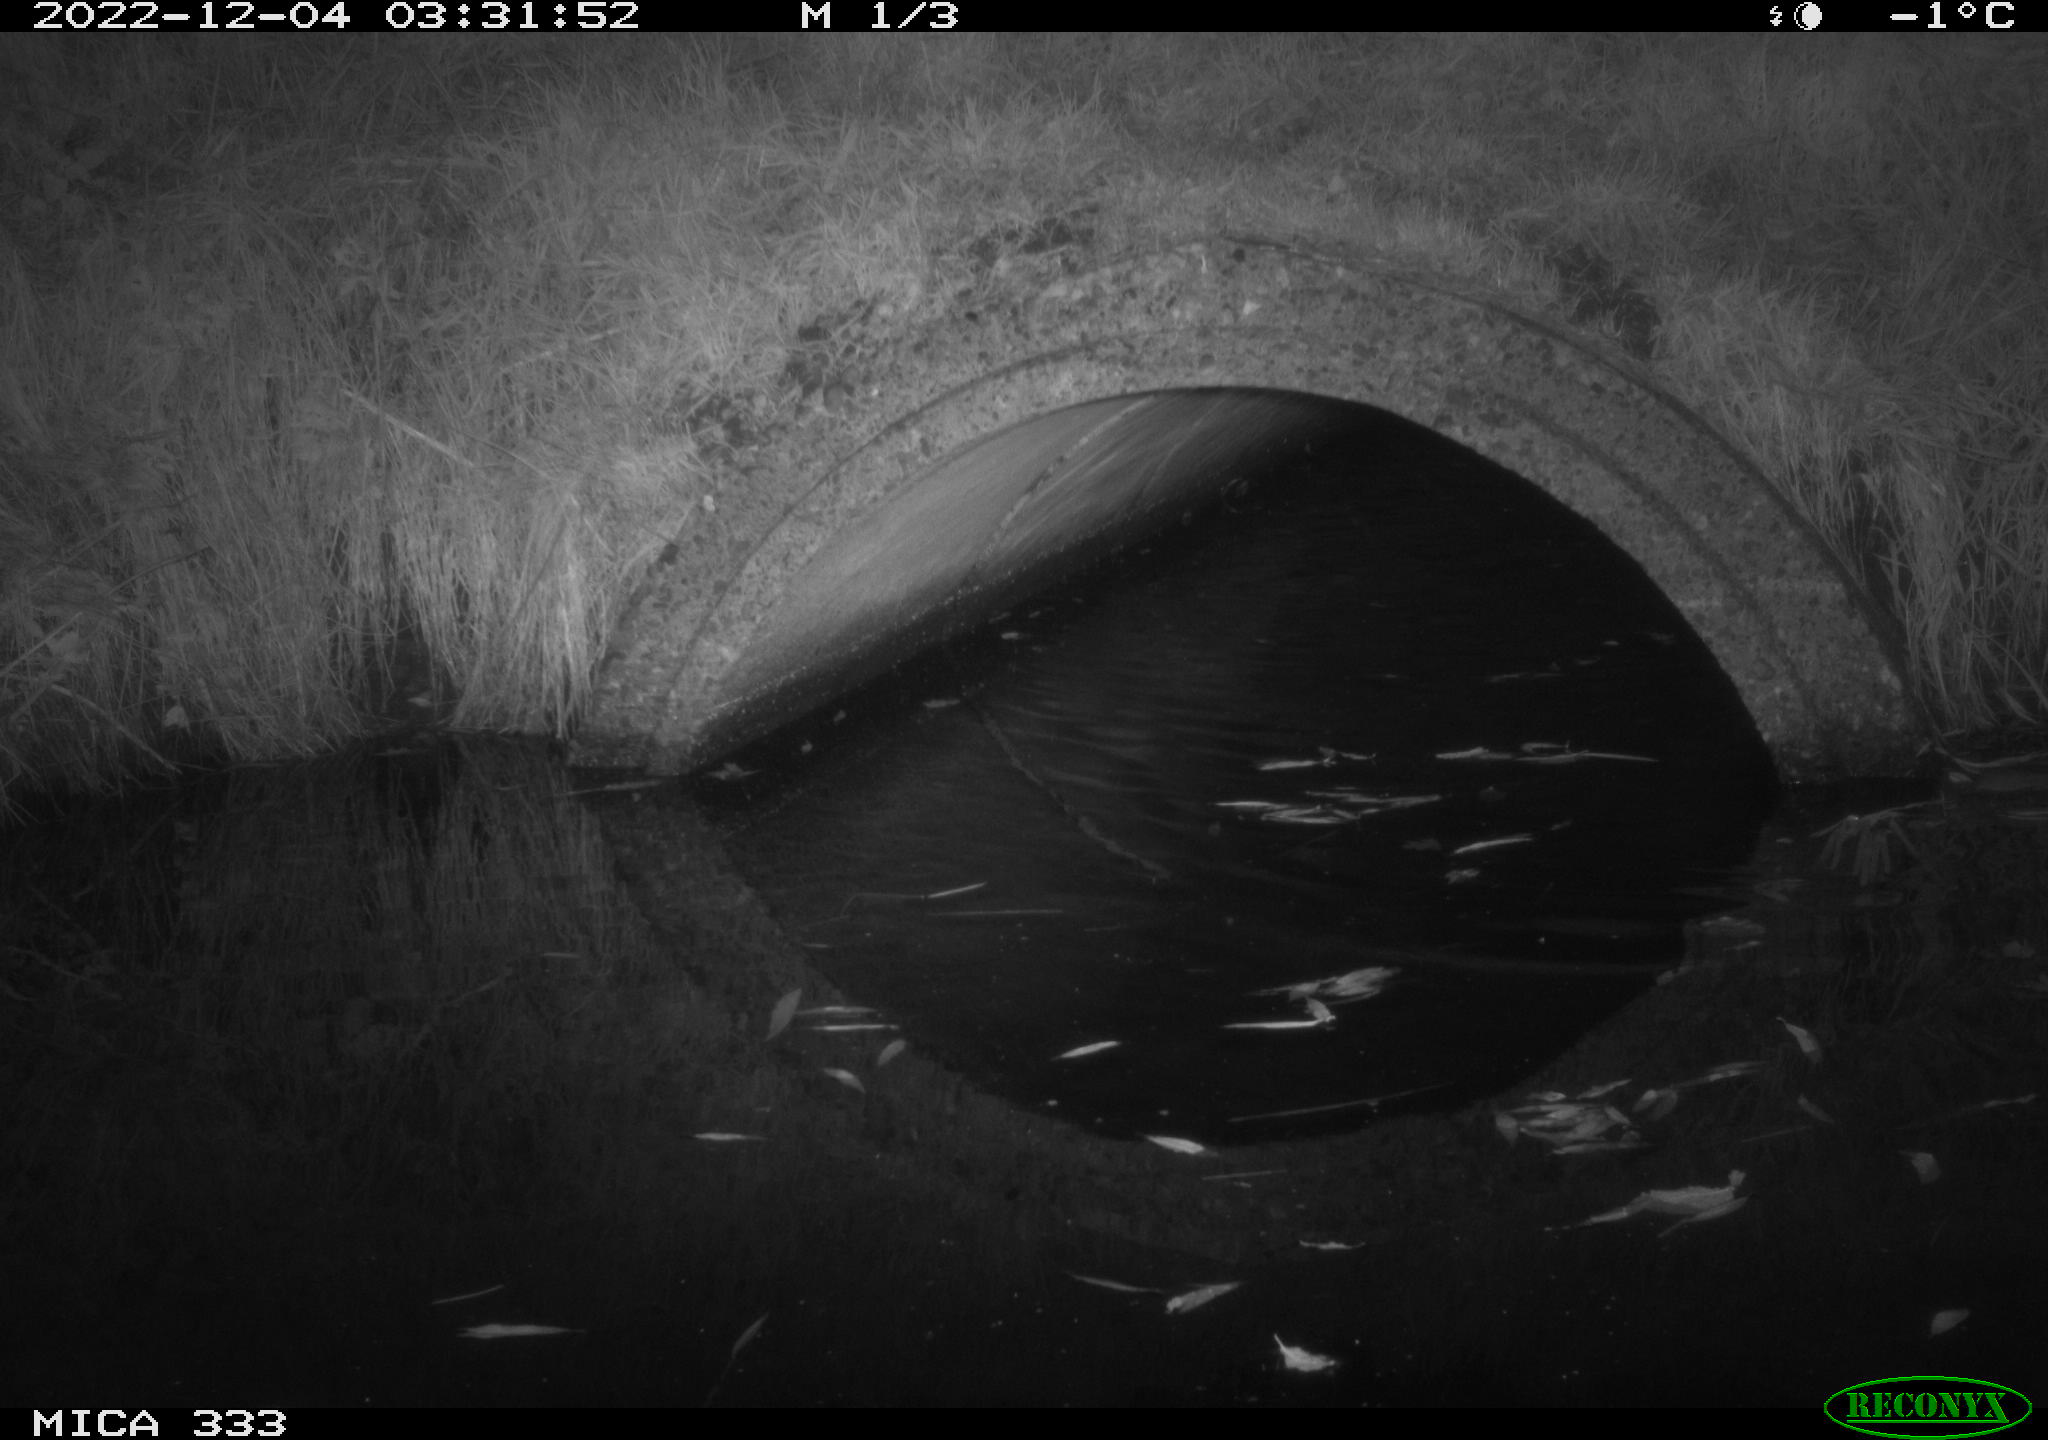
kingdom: Animalia
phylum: Chordata
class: Mammalia
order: Rodentia
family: Muridae
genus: Rattus
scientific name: Rattus norvegicus
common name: Brown rat
